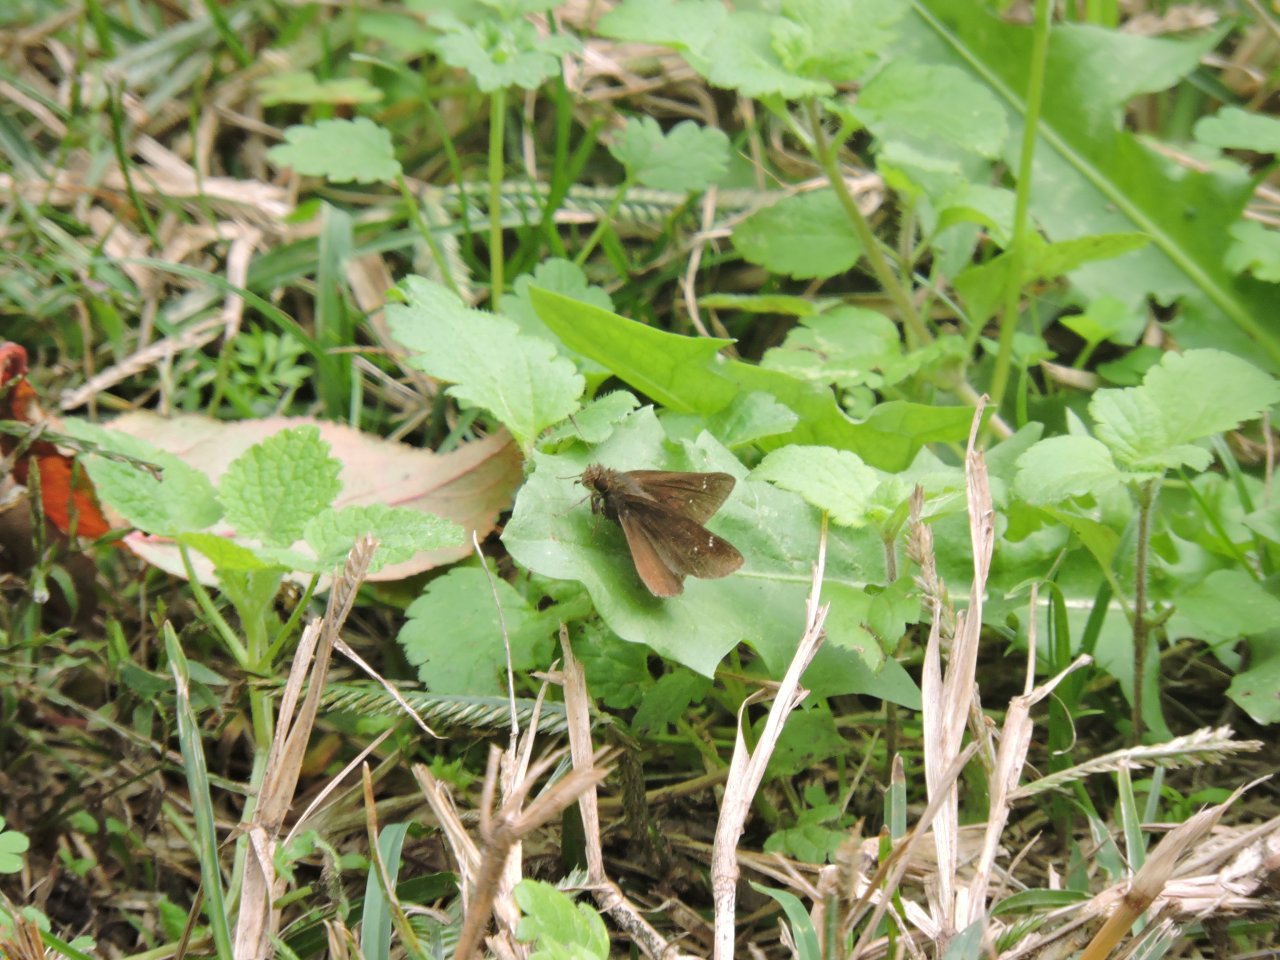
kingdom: Animalia
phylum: Arthropoda
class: Insecta
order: Lepidoptera
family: Hesperiidae
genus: Lerema
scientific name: Lerema accius
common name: Clouded Skipper
